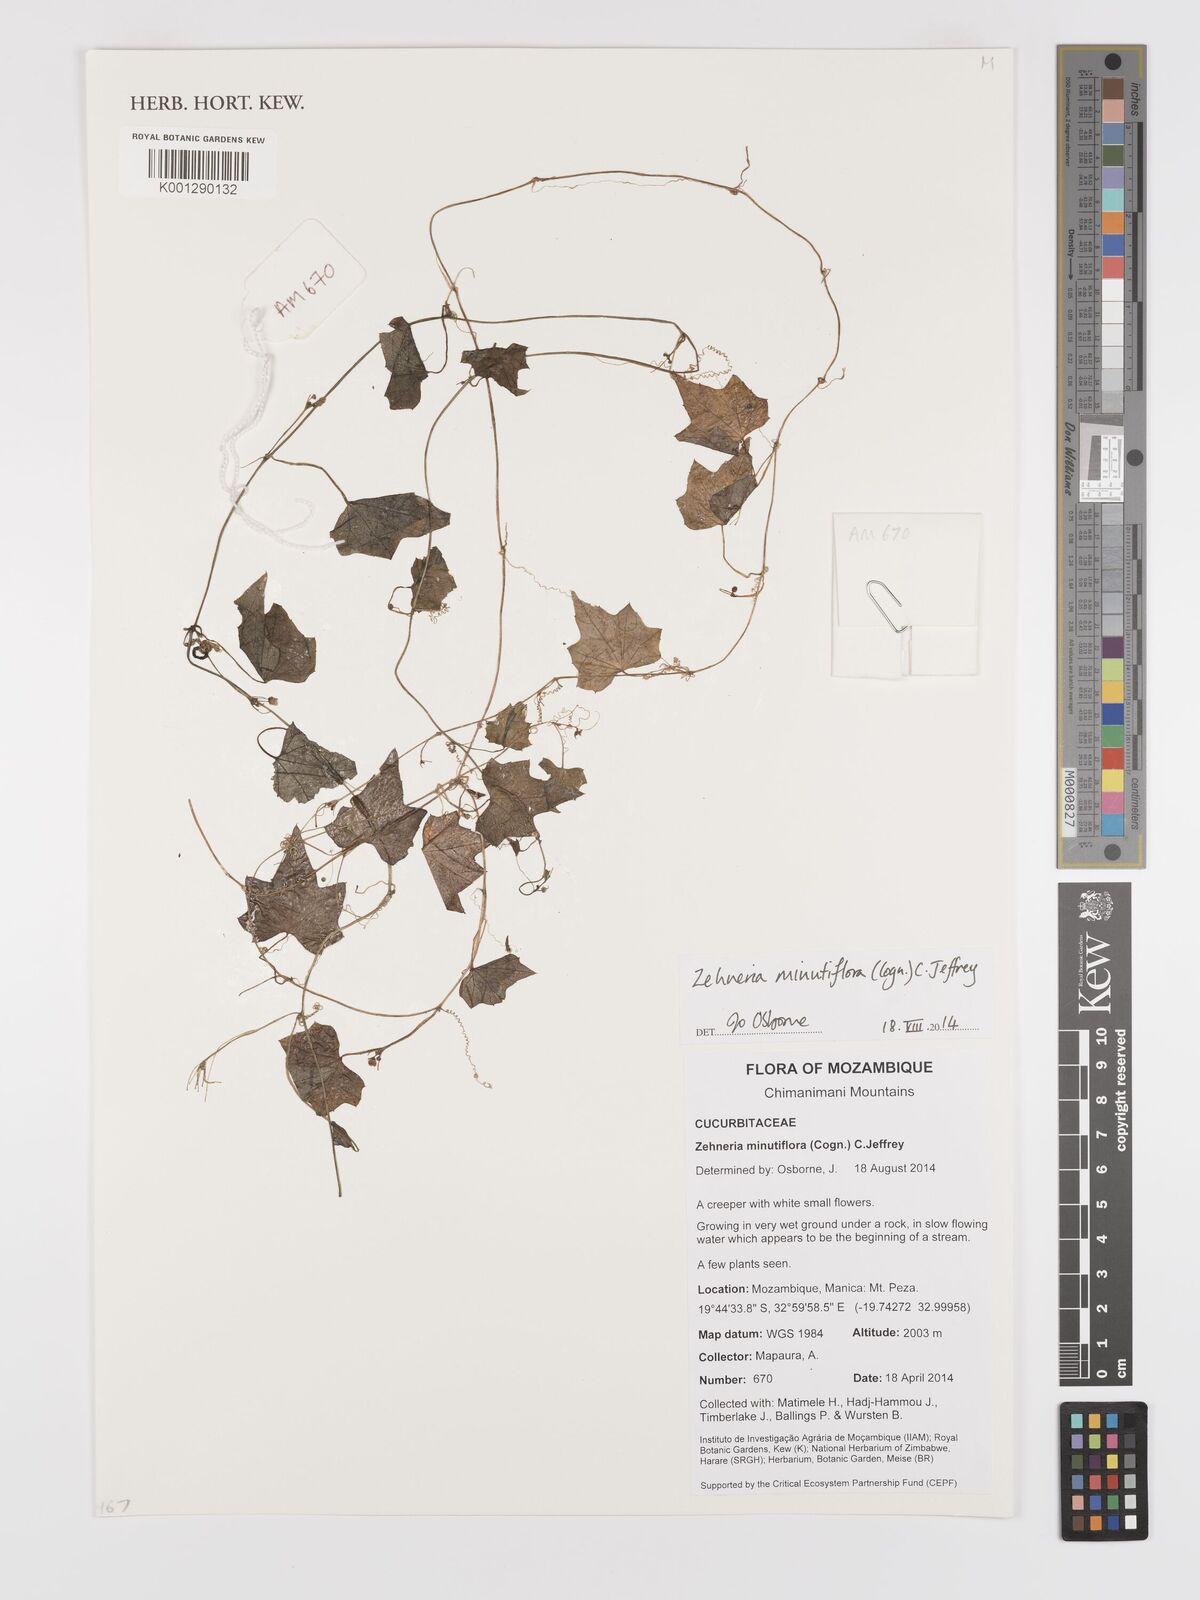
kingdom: Plantae
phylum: Tracheophyta
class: Magnoliopsida
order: Cucurbitales
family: Cucurbitaceae
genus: Zehneria
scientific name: Zehneria minutiflora
